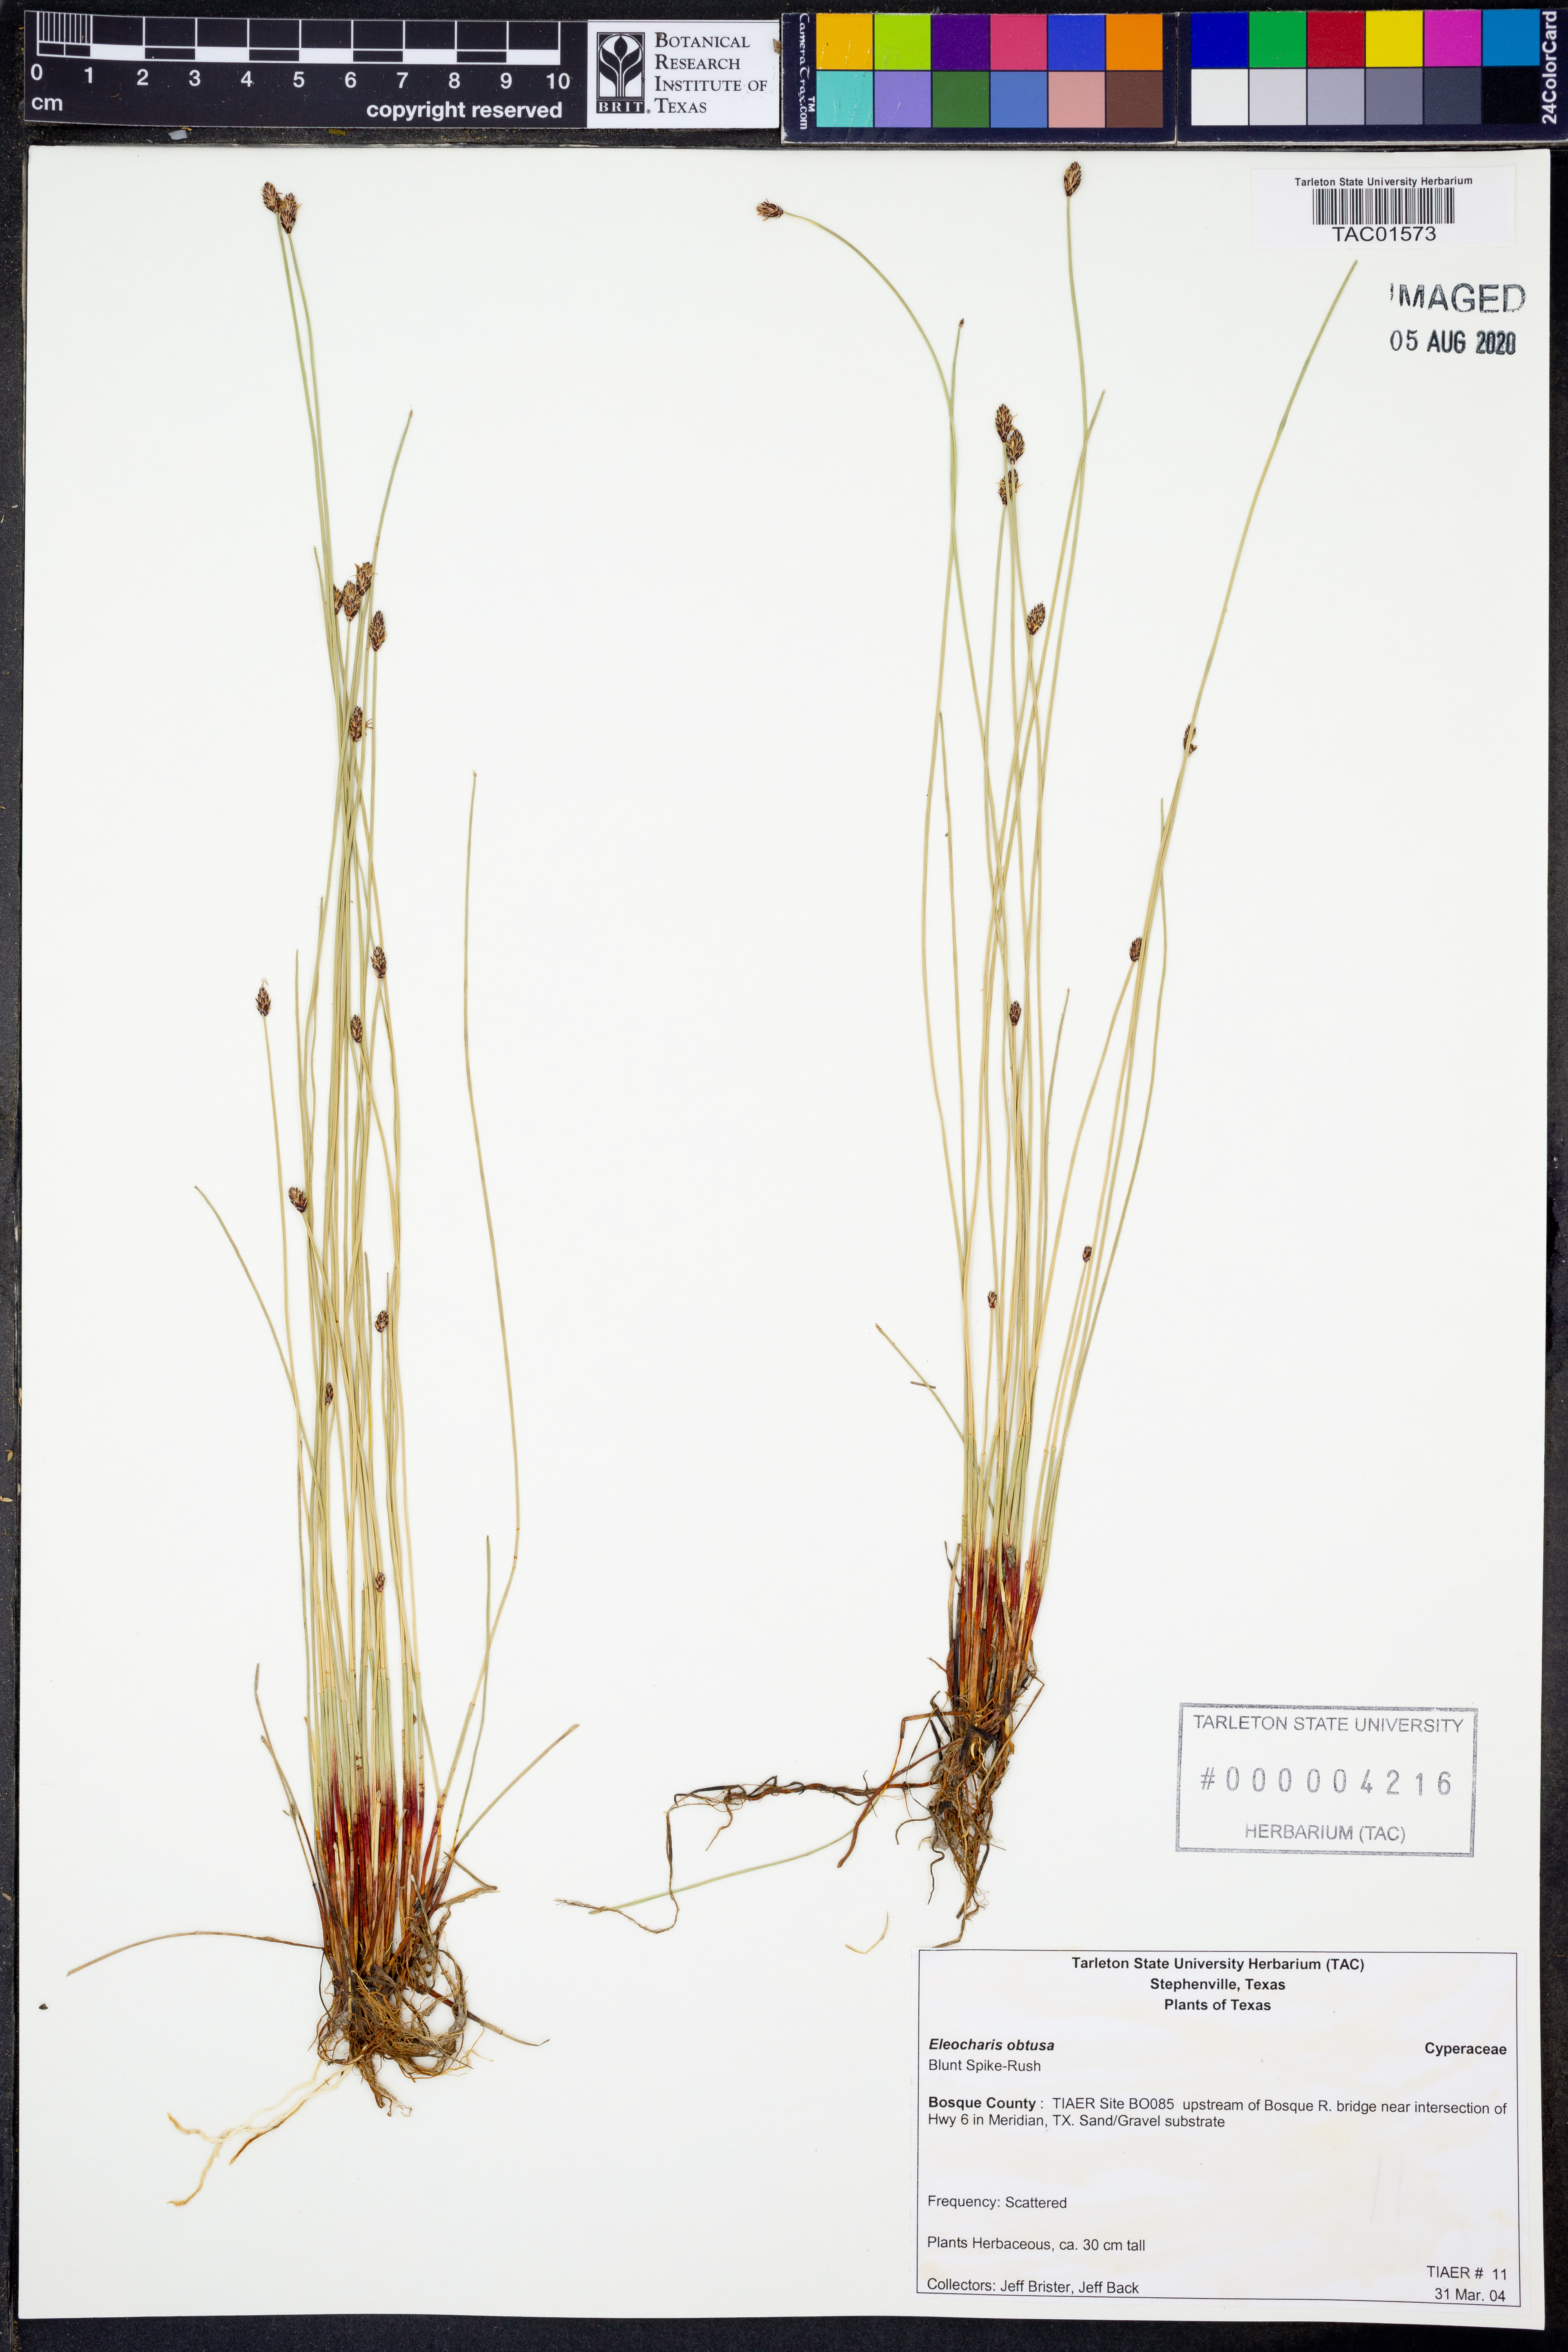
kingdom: Plantae
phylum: Tracheophyta
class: Liliopsida
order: Poales
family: Cyperaceae
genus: Eleocharis
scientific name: Eleocharis montevidensis
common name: Sand spike-rush
